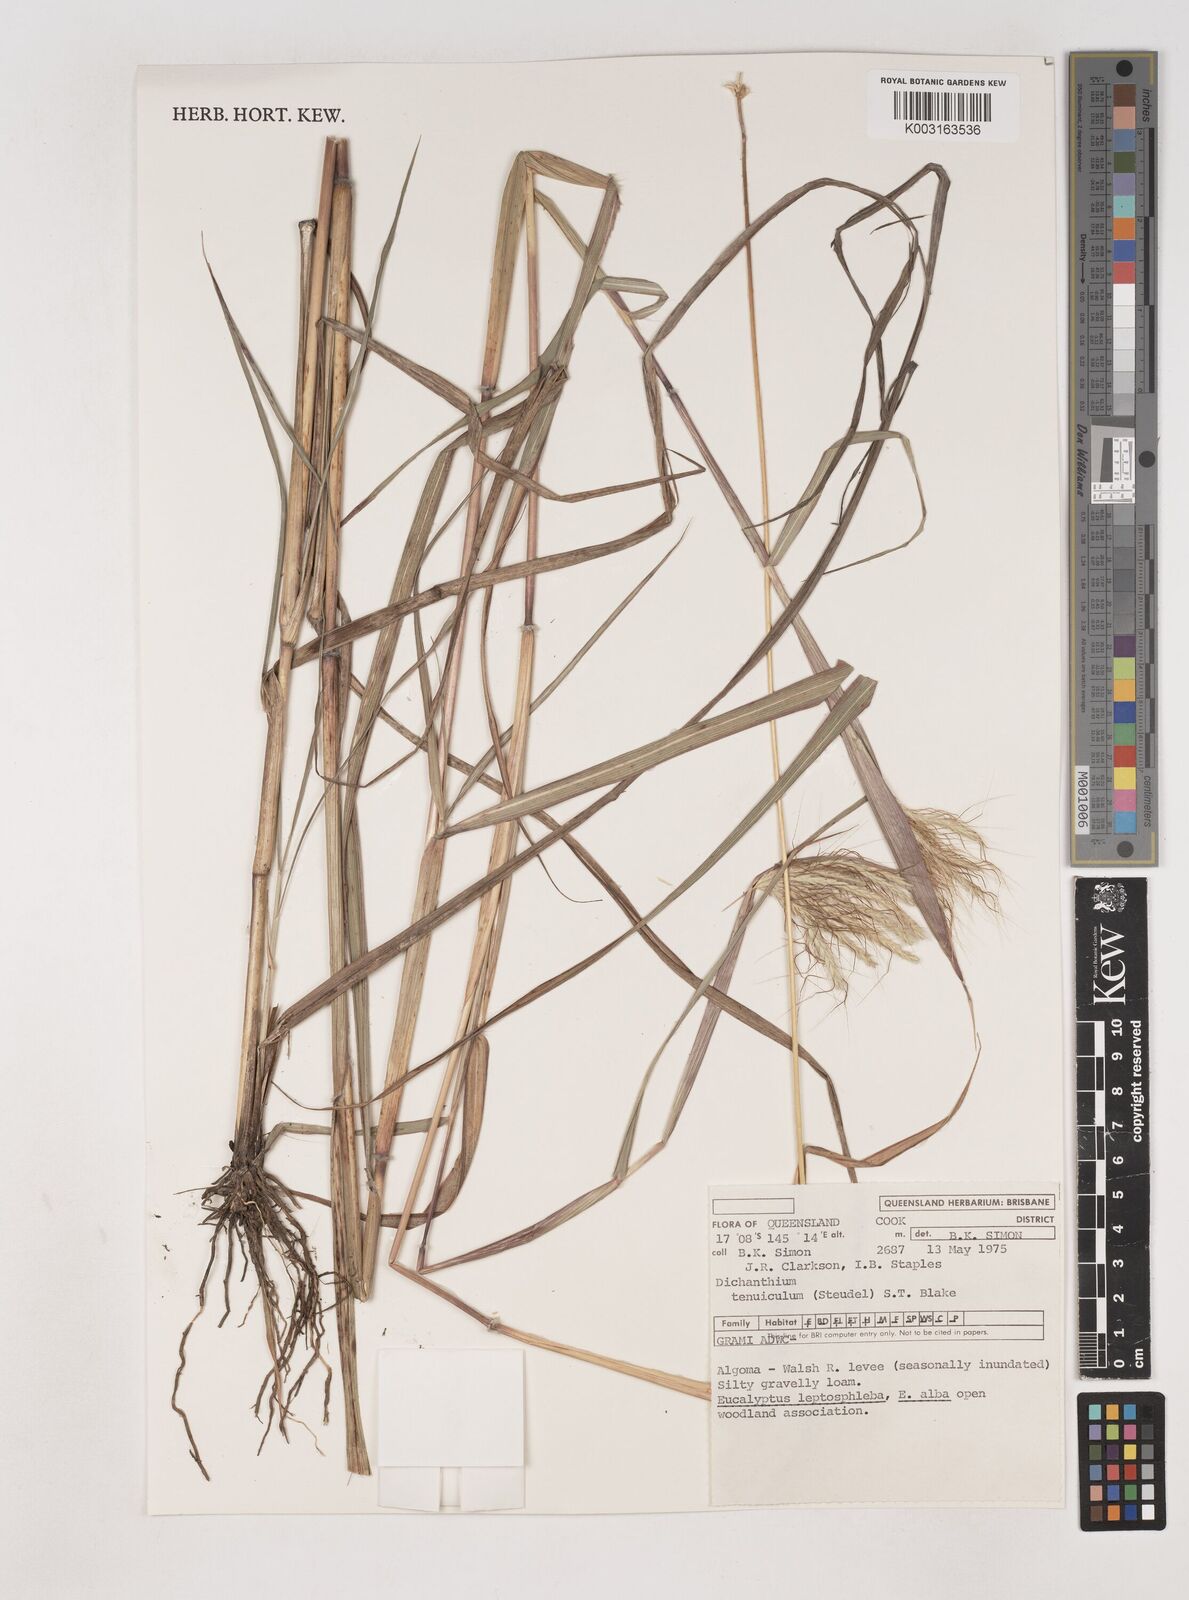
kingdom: Plantae
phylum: Tracheophyta
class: Liliopsida
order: Poales
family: Poaceae
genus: Dichanthium
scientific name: Dichanthium sericeum
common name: Silky bluestem
